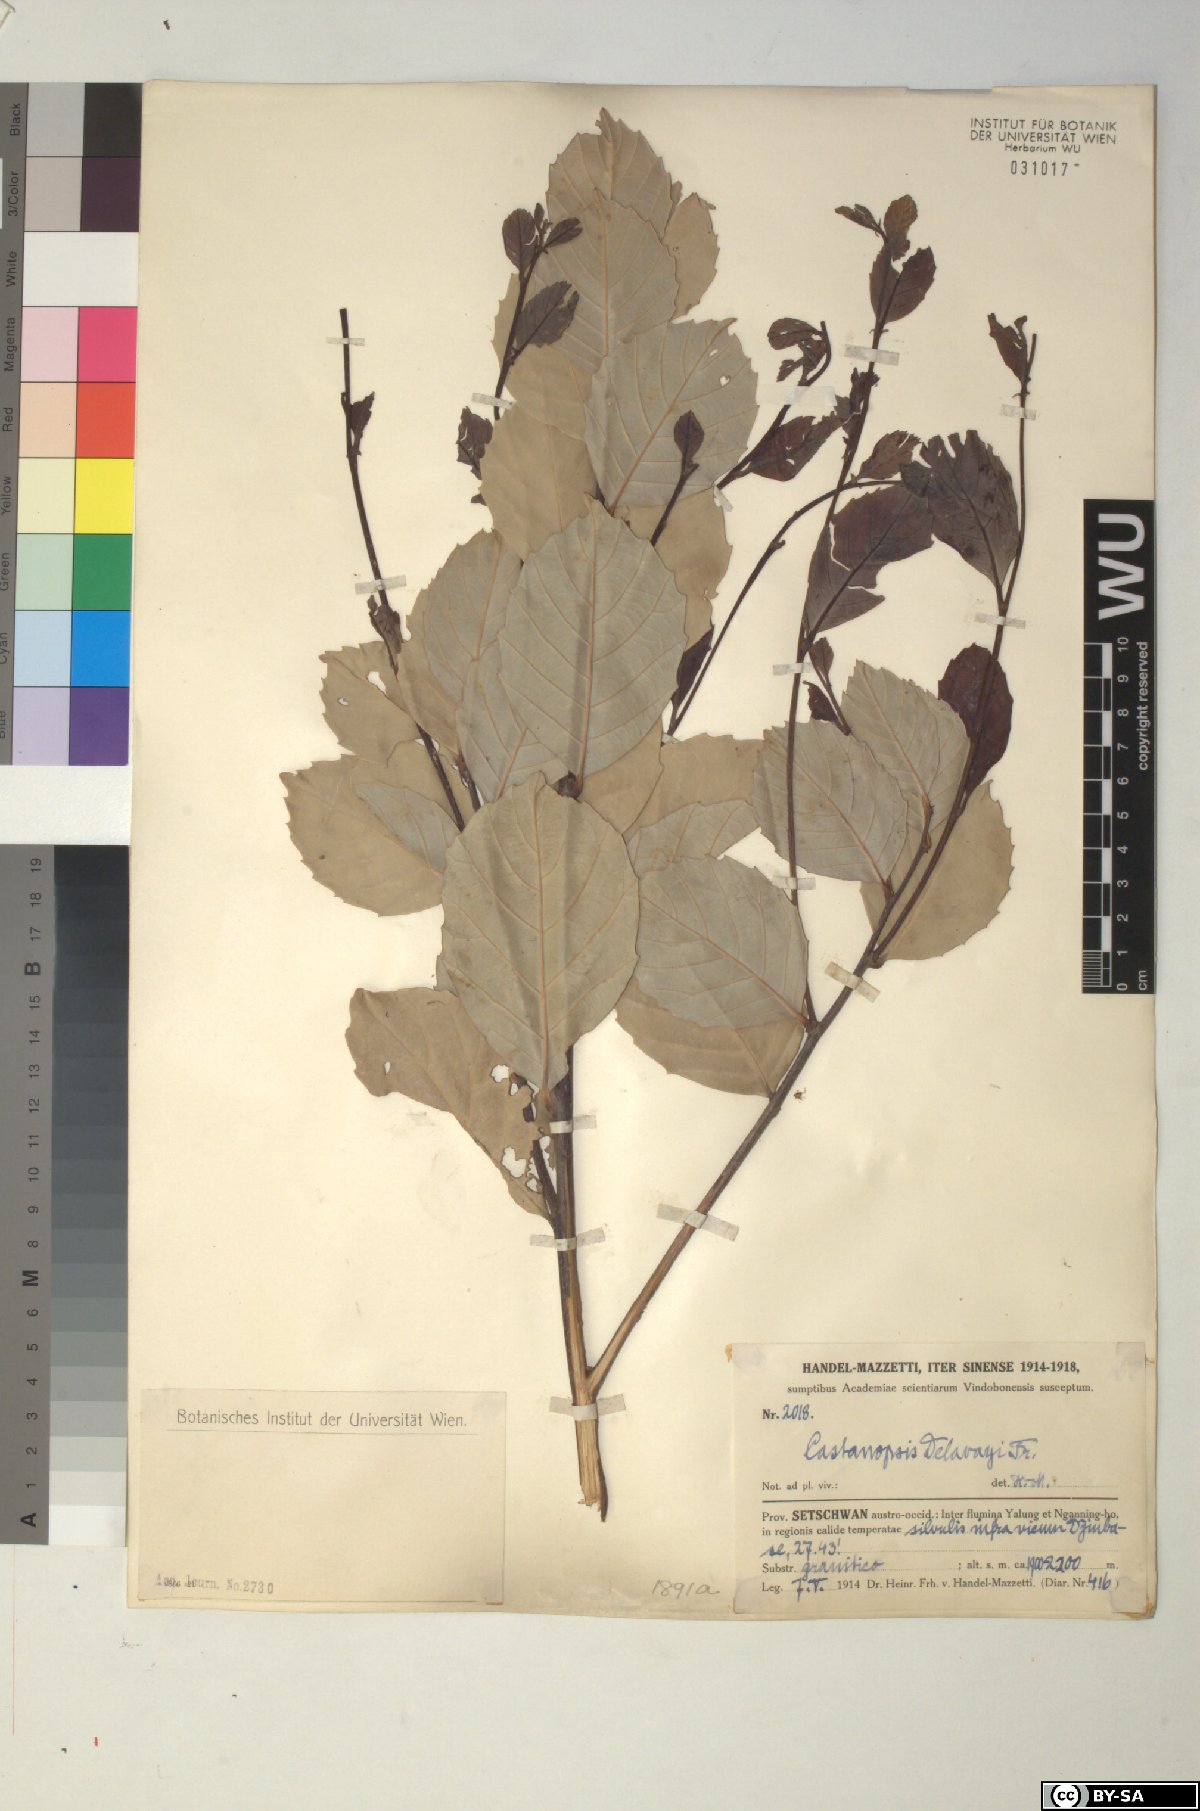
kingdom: Plantae
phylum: Tracheophyta
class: Magnoliopsida
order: Fagales
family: Fagaceae
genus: Castanopsis
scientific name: Castanopsis delavayi
